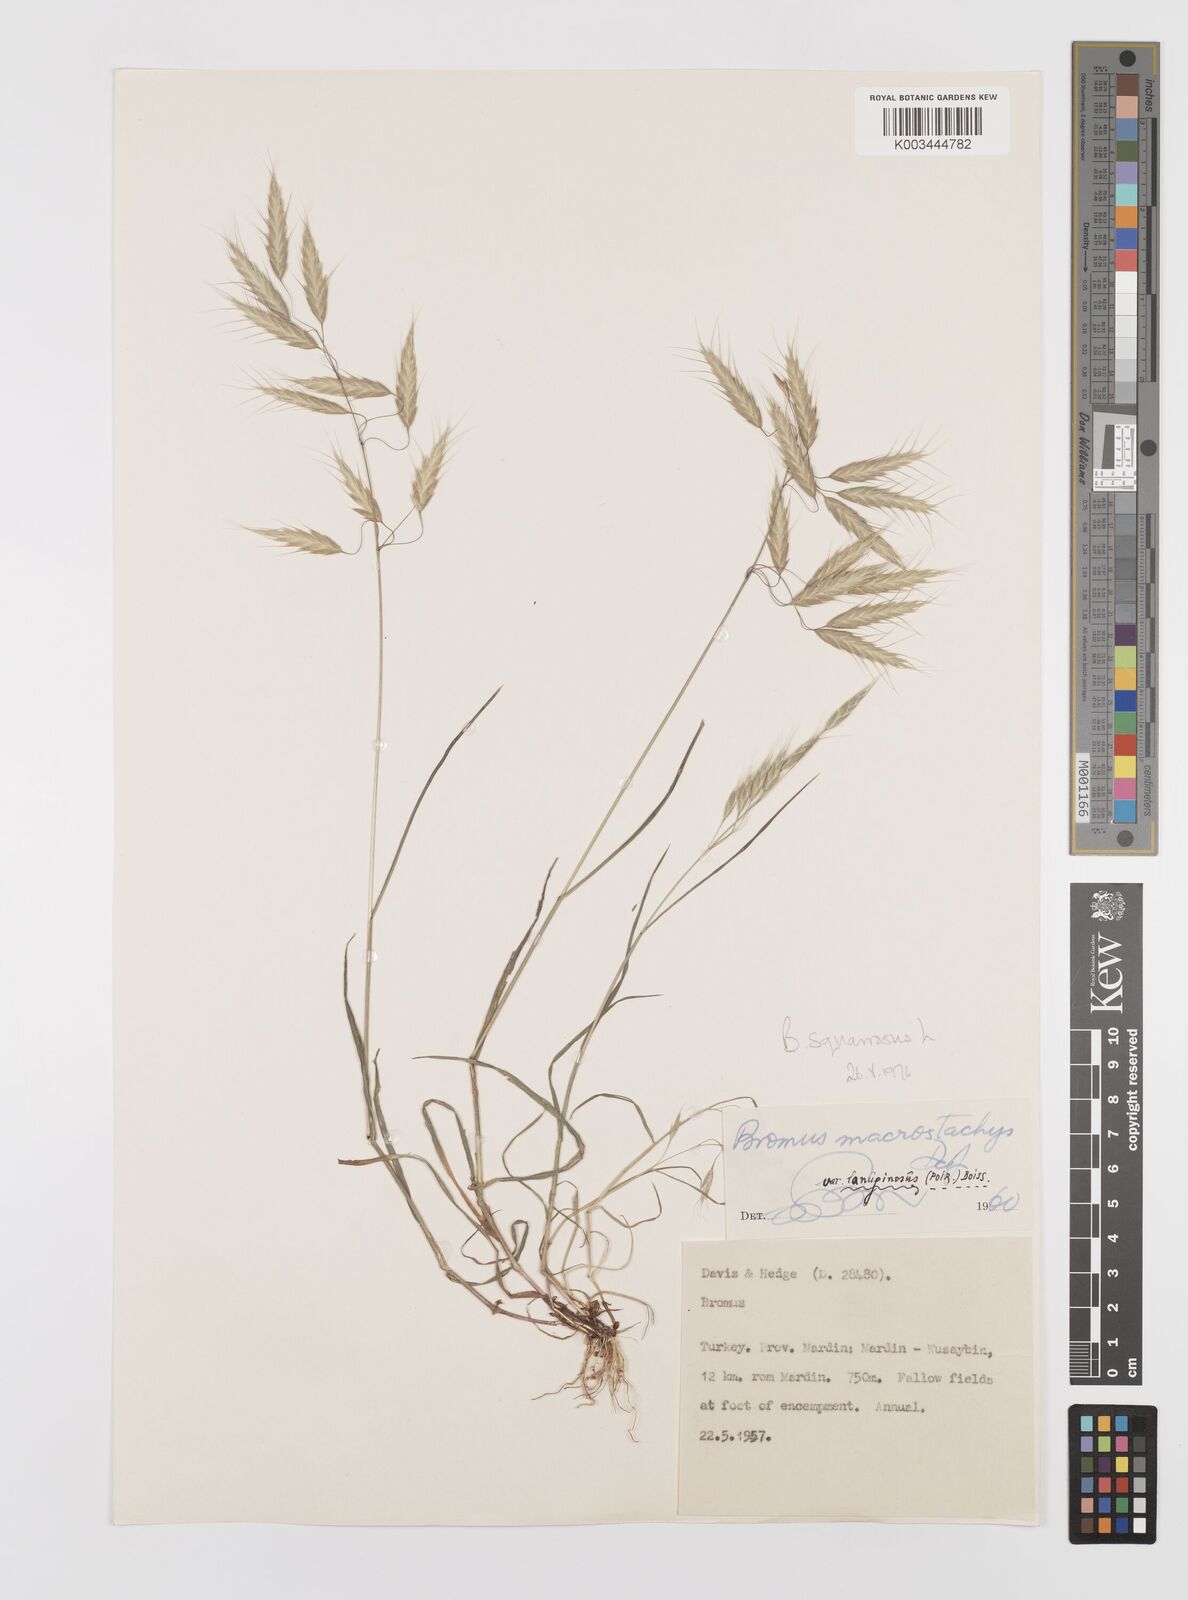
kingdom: Plantae
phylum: Tracheophyta
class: Liliopsida
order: Poales
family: Poaceae
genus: Bromus
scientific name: Bromus squarrosus
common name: Corn brome
